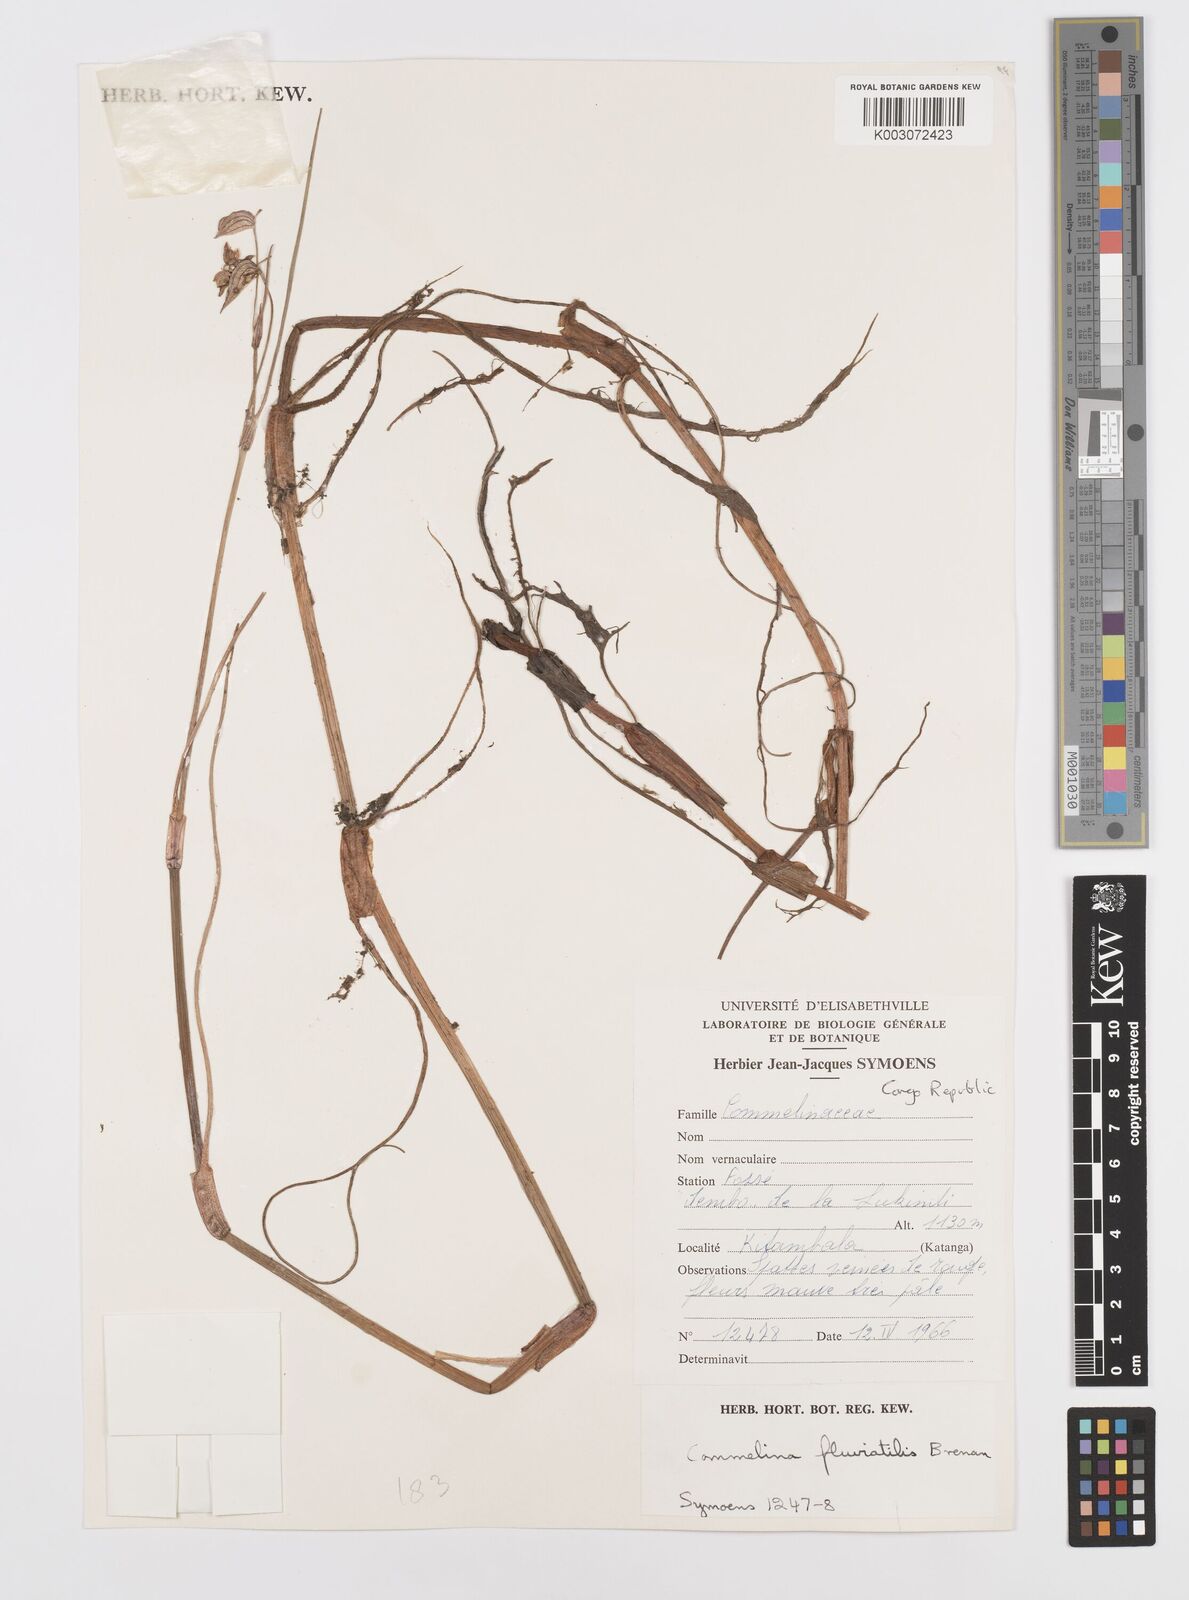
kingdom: Plantae
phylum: Tracheophyta
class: Liliopsida
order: Commelinales
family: Commelinaceae
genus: Commelina
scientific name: Commelina fluviatilis
